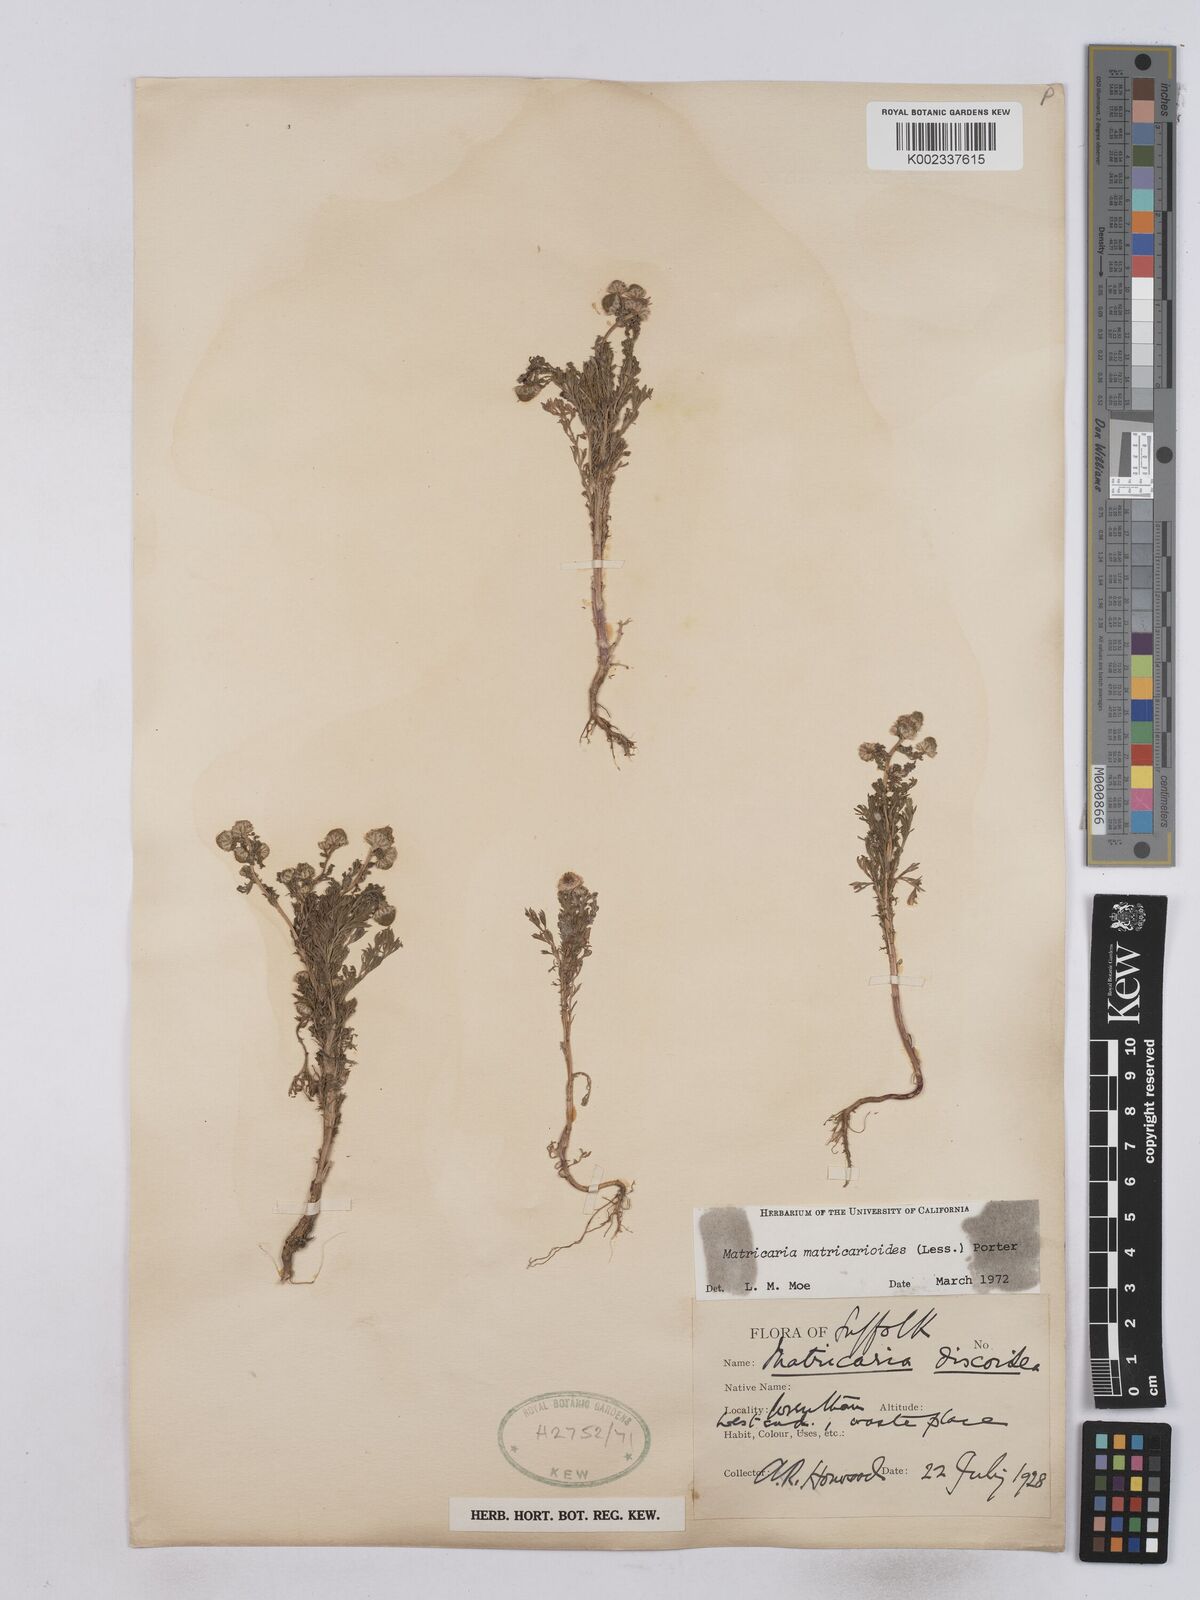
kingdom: Plantae
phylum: Tracheophyta
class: Magnoliopsida
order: Asterales
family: Asteraceae
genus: Matricaria
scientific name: Matricaria discoidea
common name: Disc mayweed
